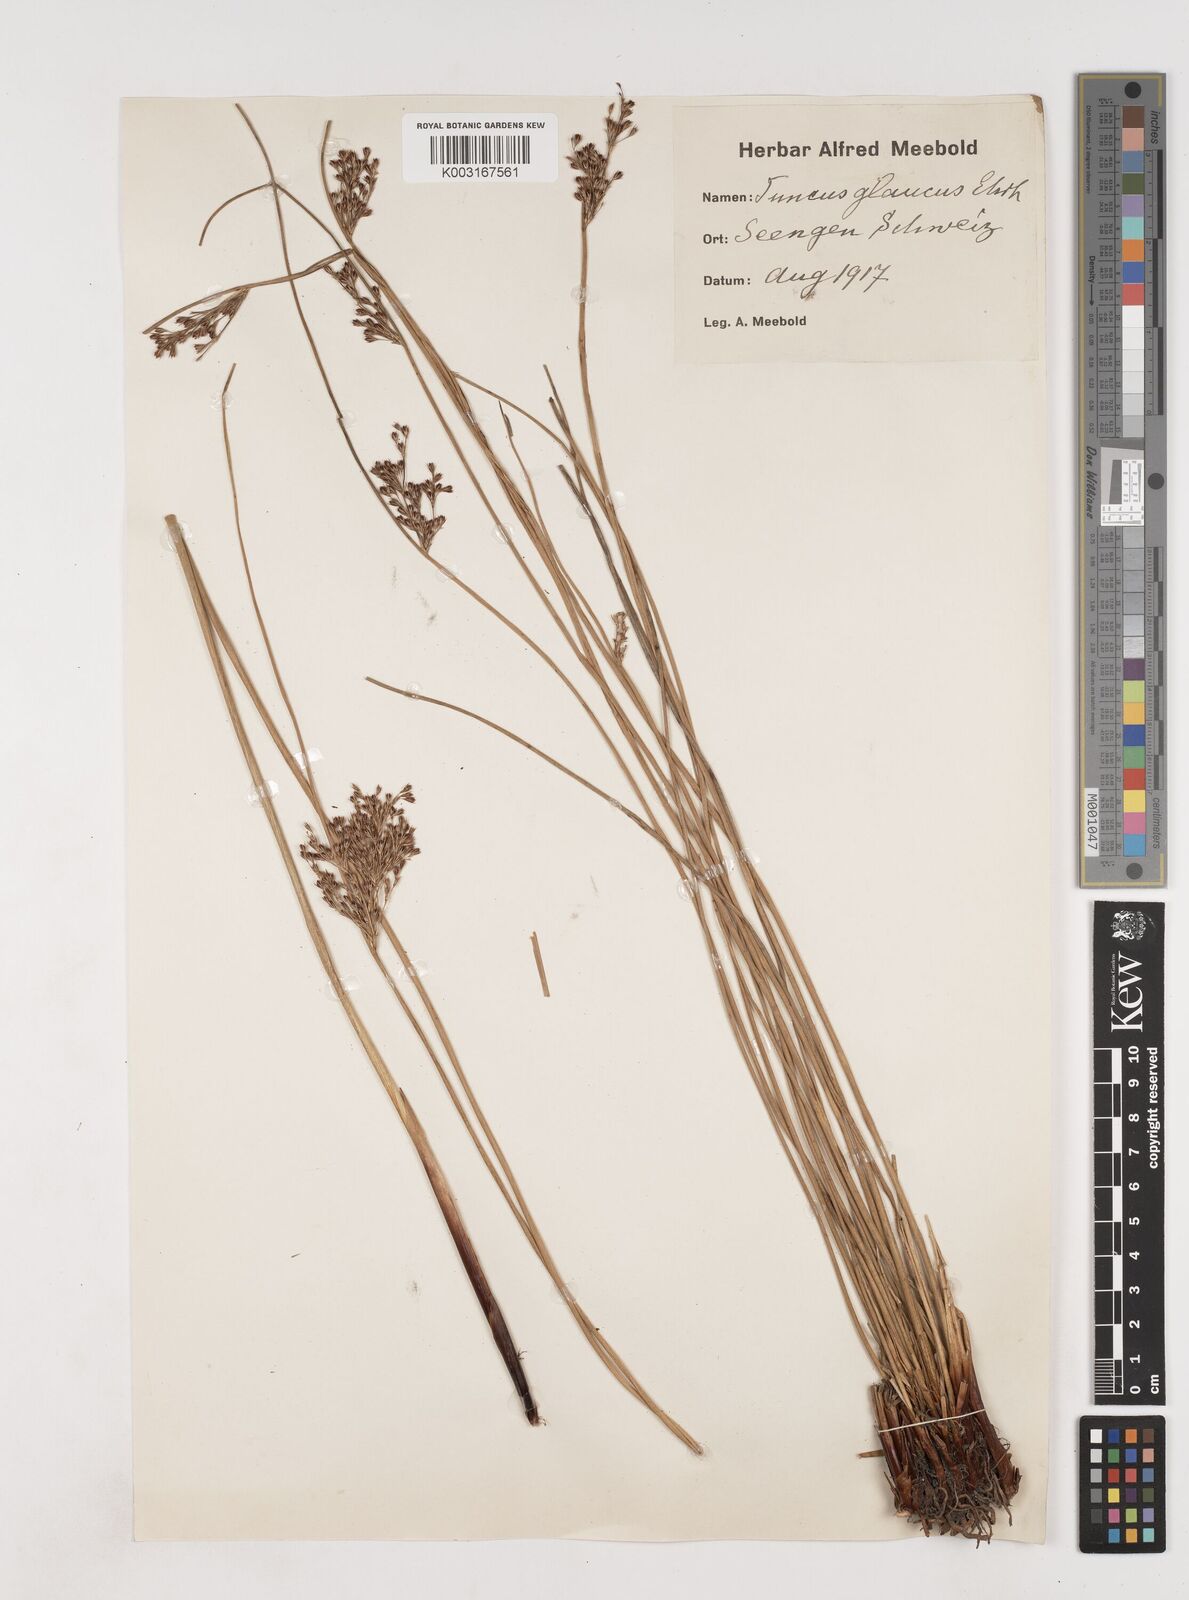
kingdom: Plantae
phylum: Tracheophyta
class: Liliopsida
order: Poales
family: Juncaceae
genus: Juncus
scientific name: Juncus inflexus
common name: Hard rush
